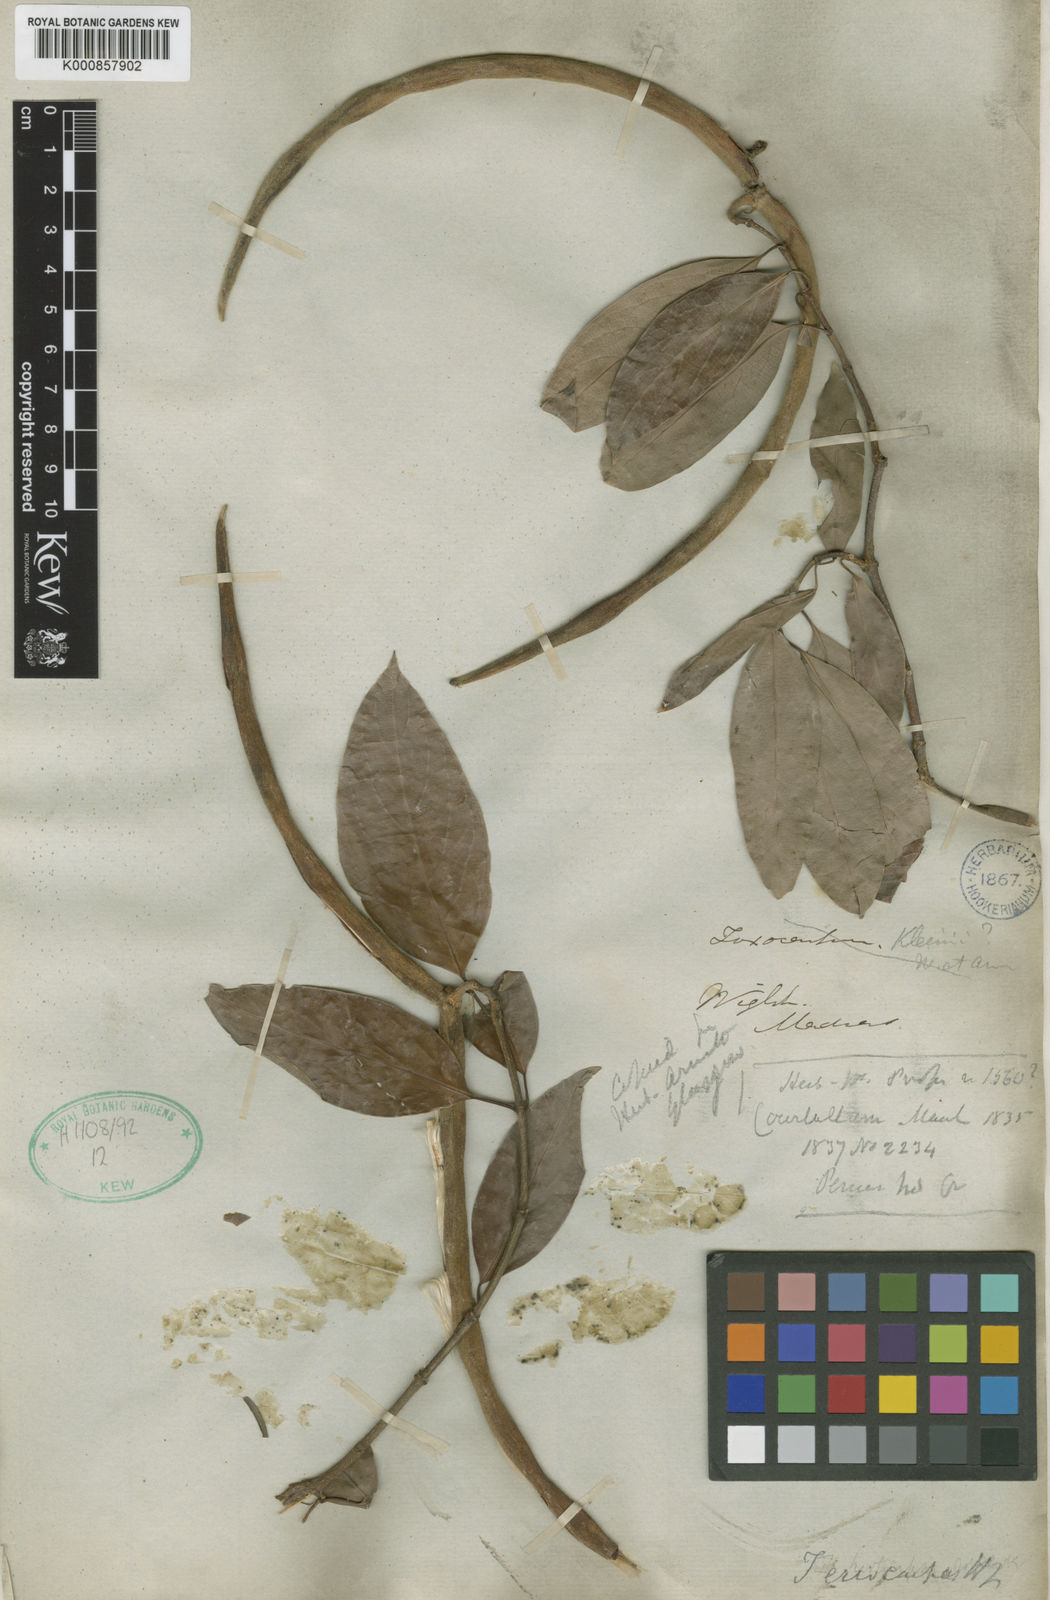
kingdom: Plantae
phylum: Tracheophyta
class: Magnoliopsida
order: Gentianales
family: Apocynaceae
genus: Aganosma
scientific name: Aganosma cymosa
